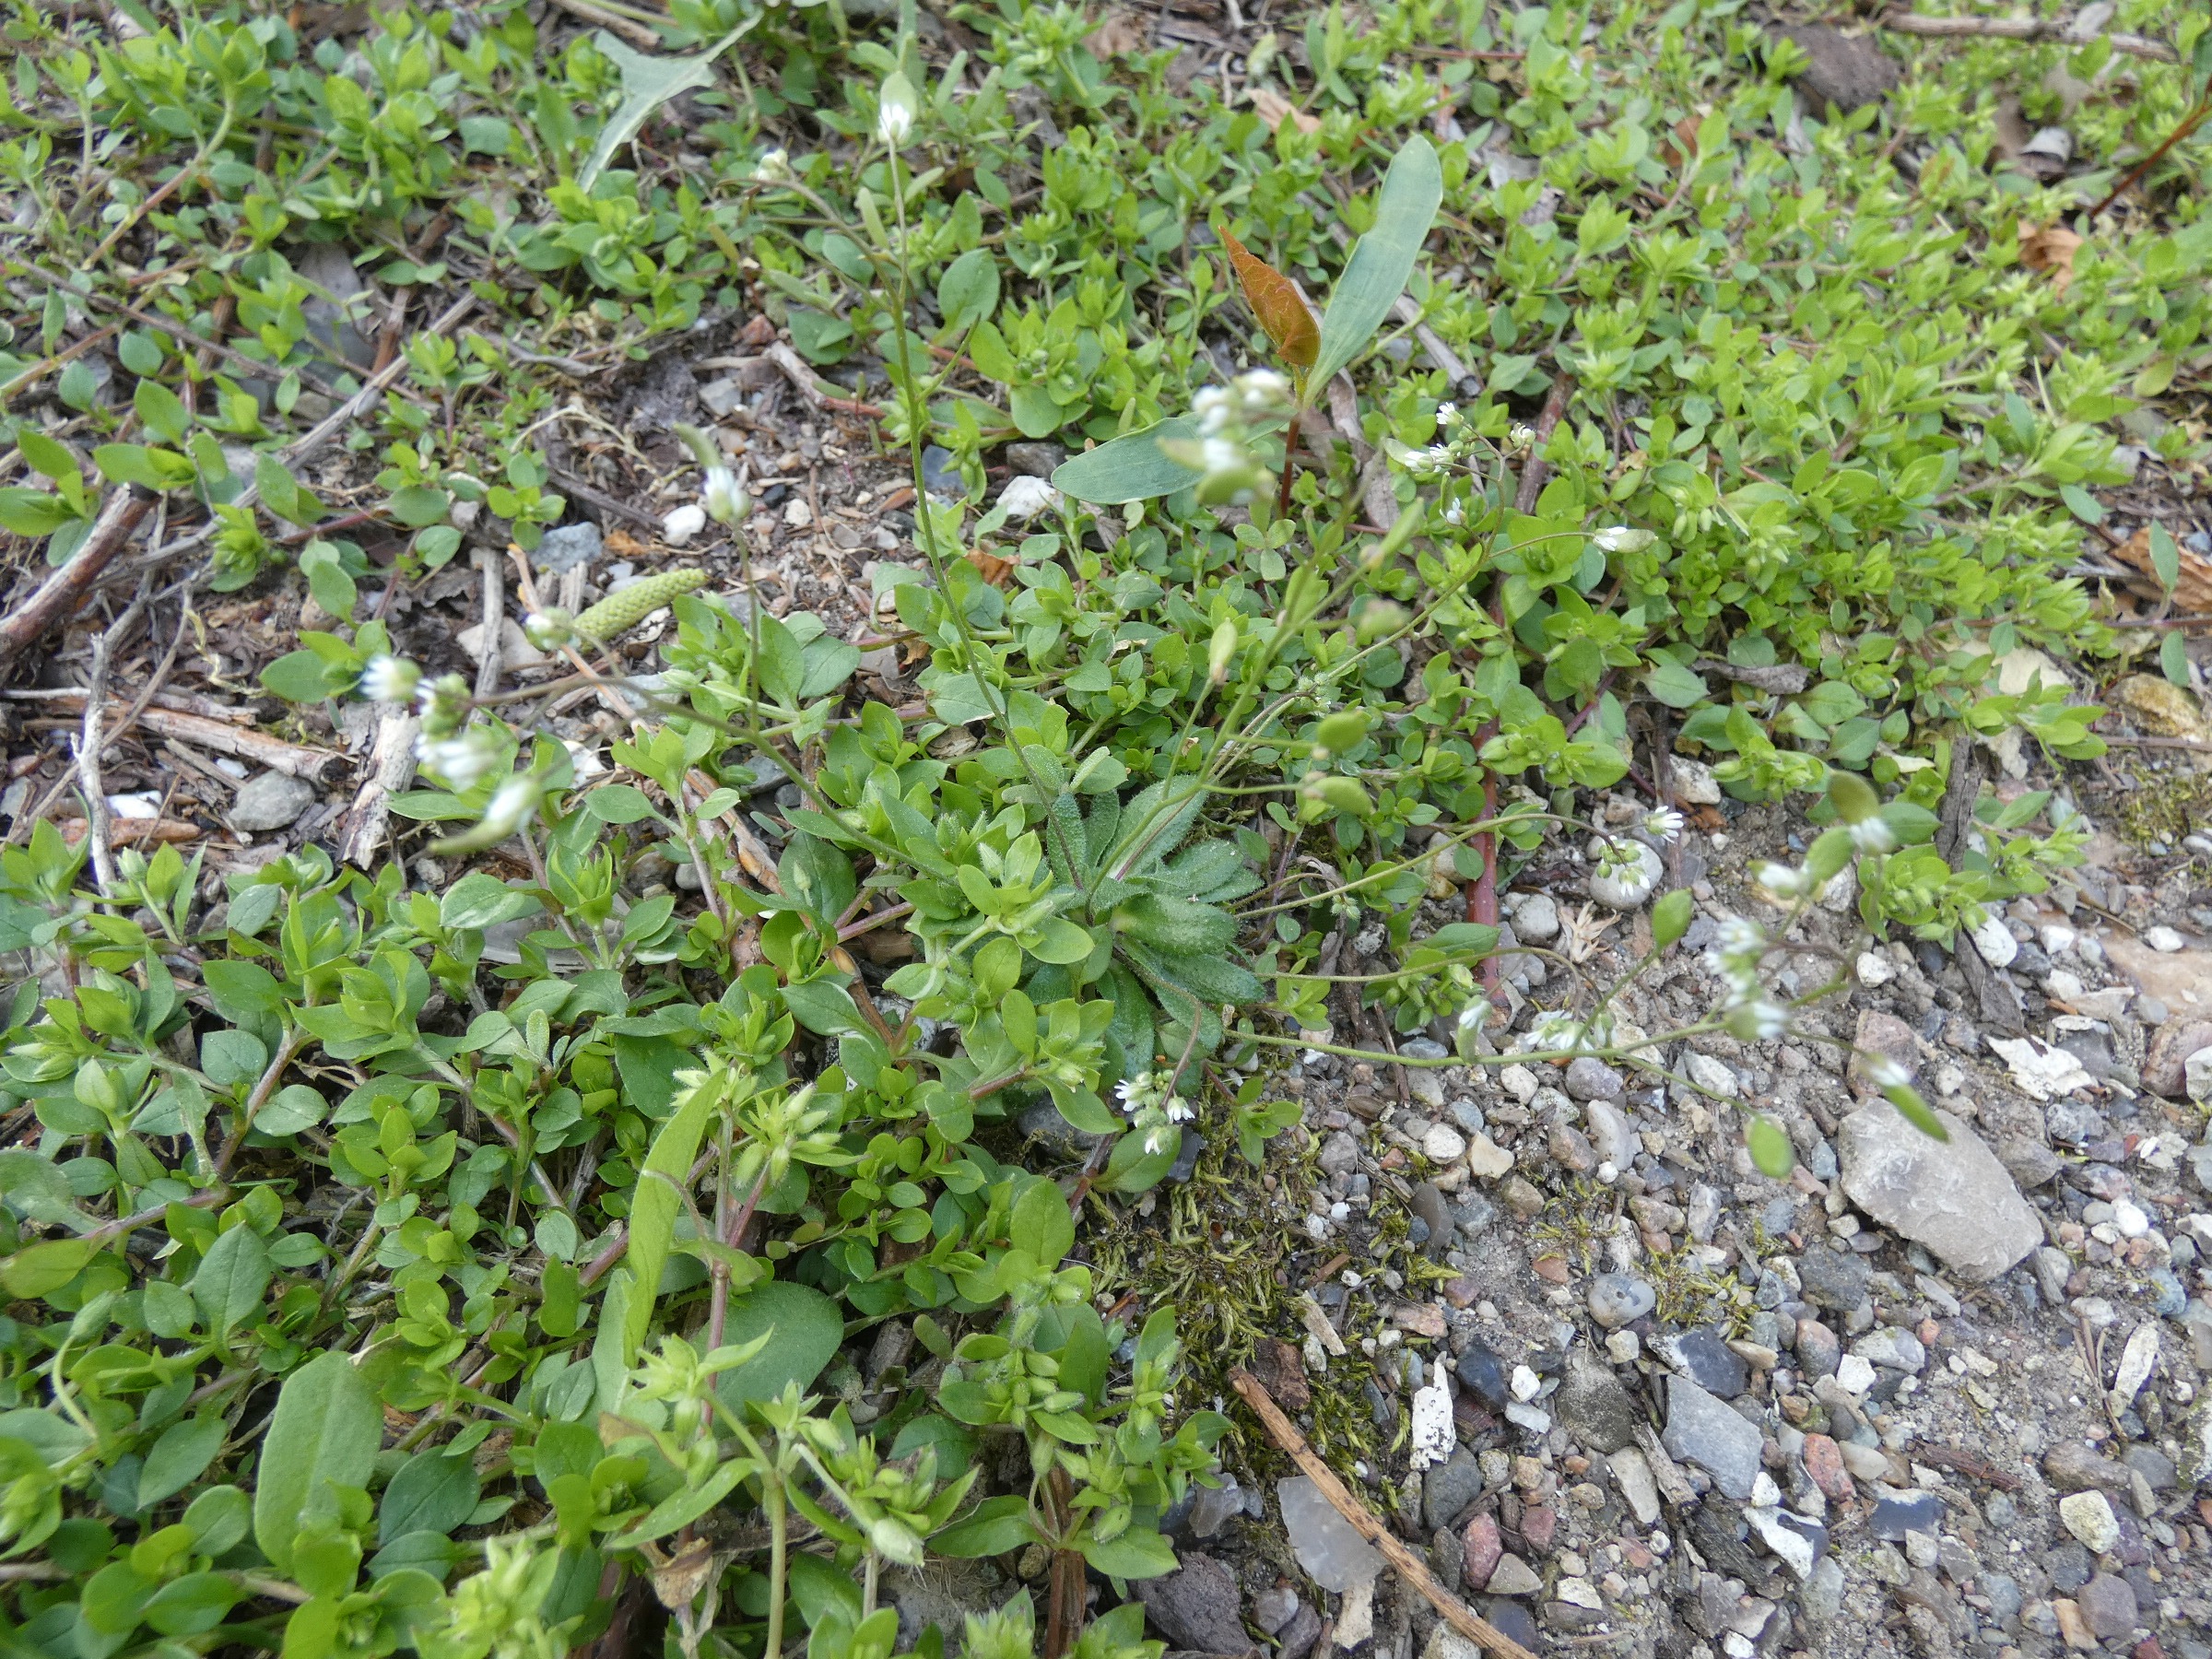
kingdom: Plantae
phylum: Tracheophyta
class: Magnoliopsida
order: Brassicales
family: Brassicaceae
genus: Draba
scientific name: Draba verna
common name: Vår-gæslingeblomst
